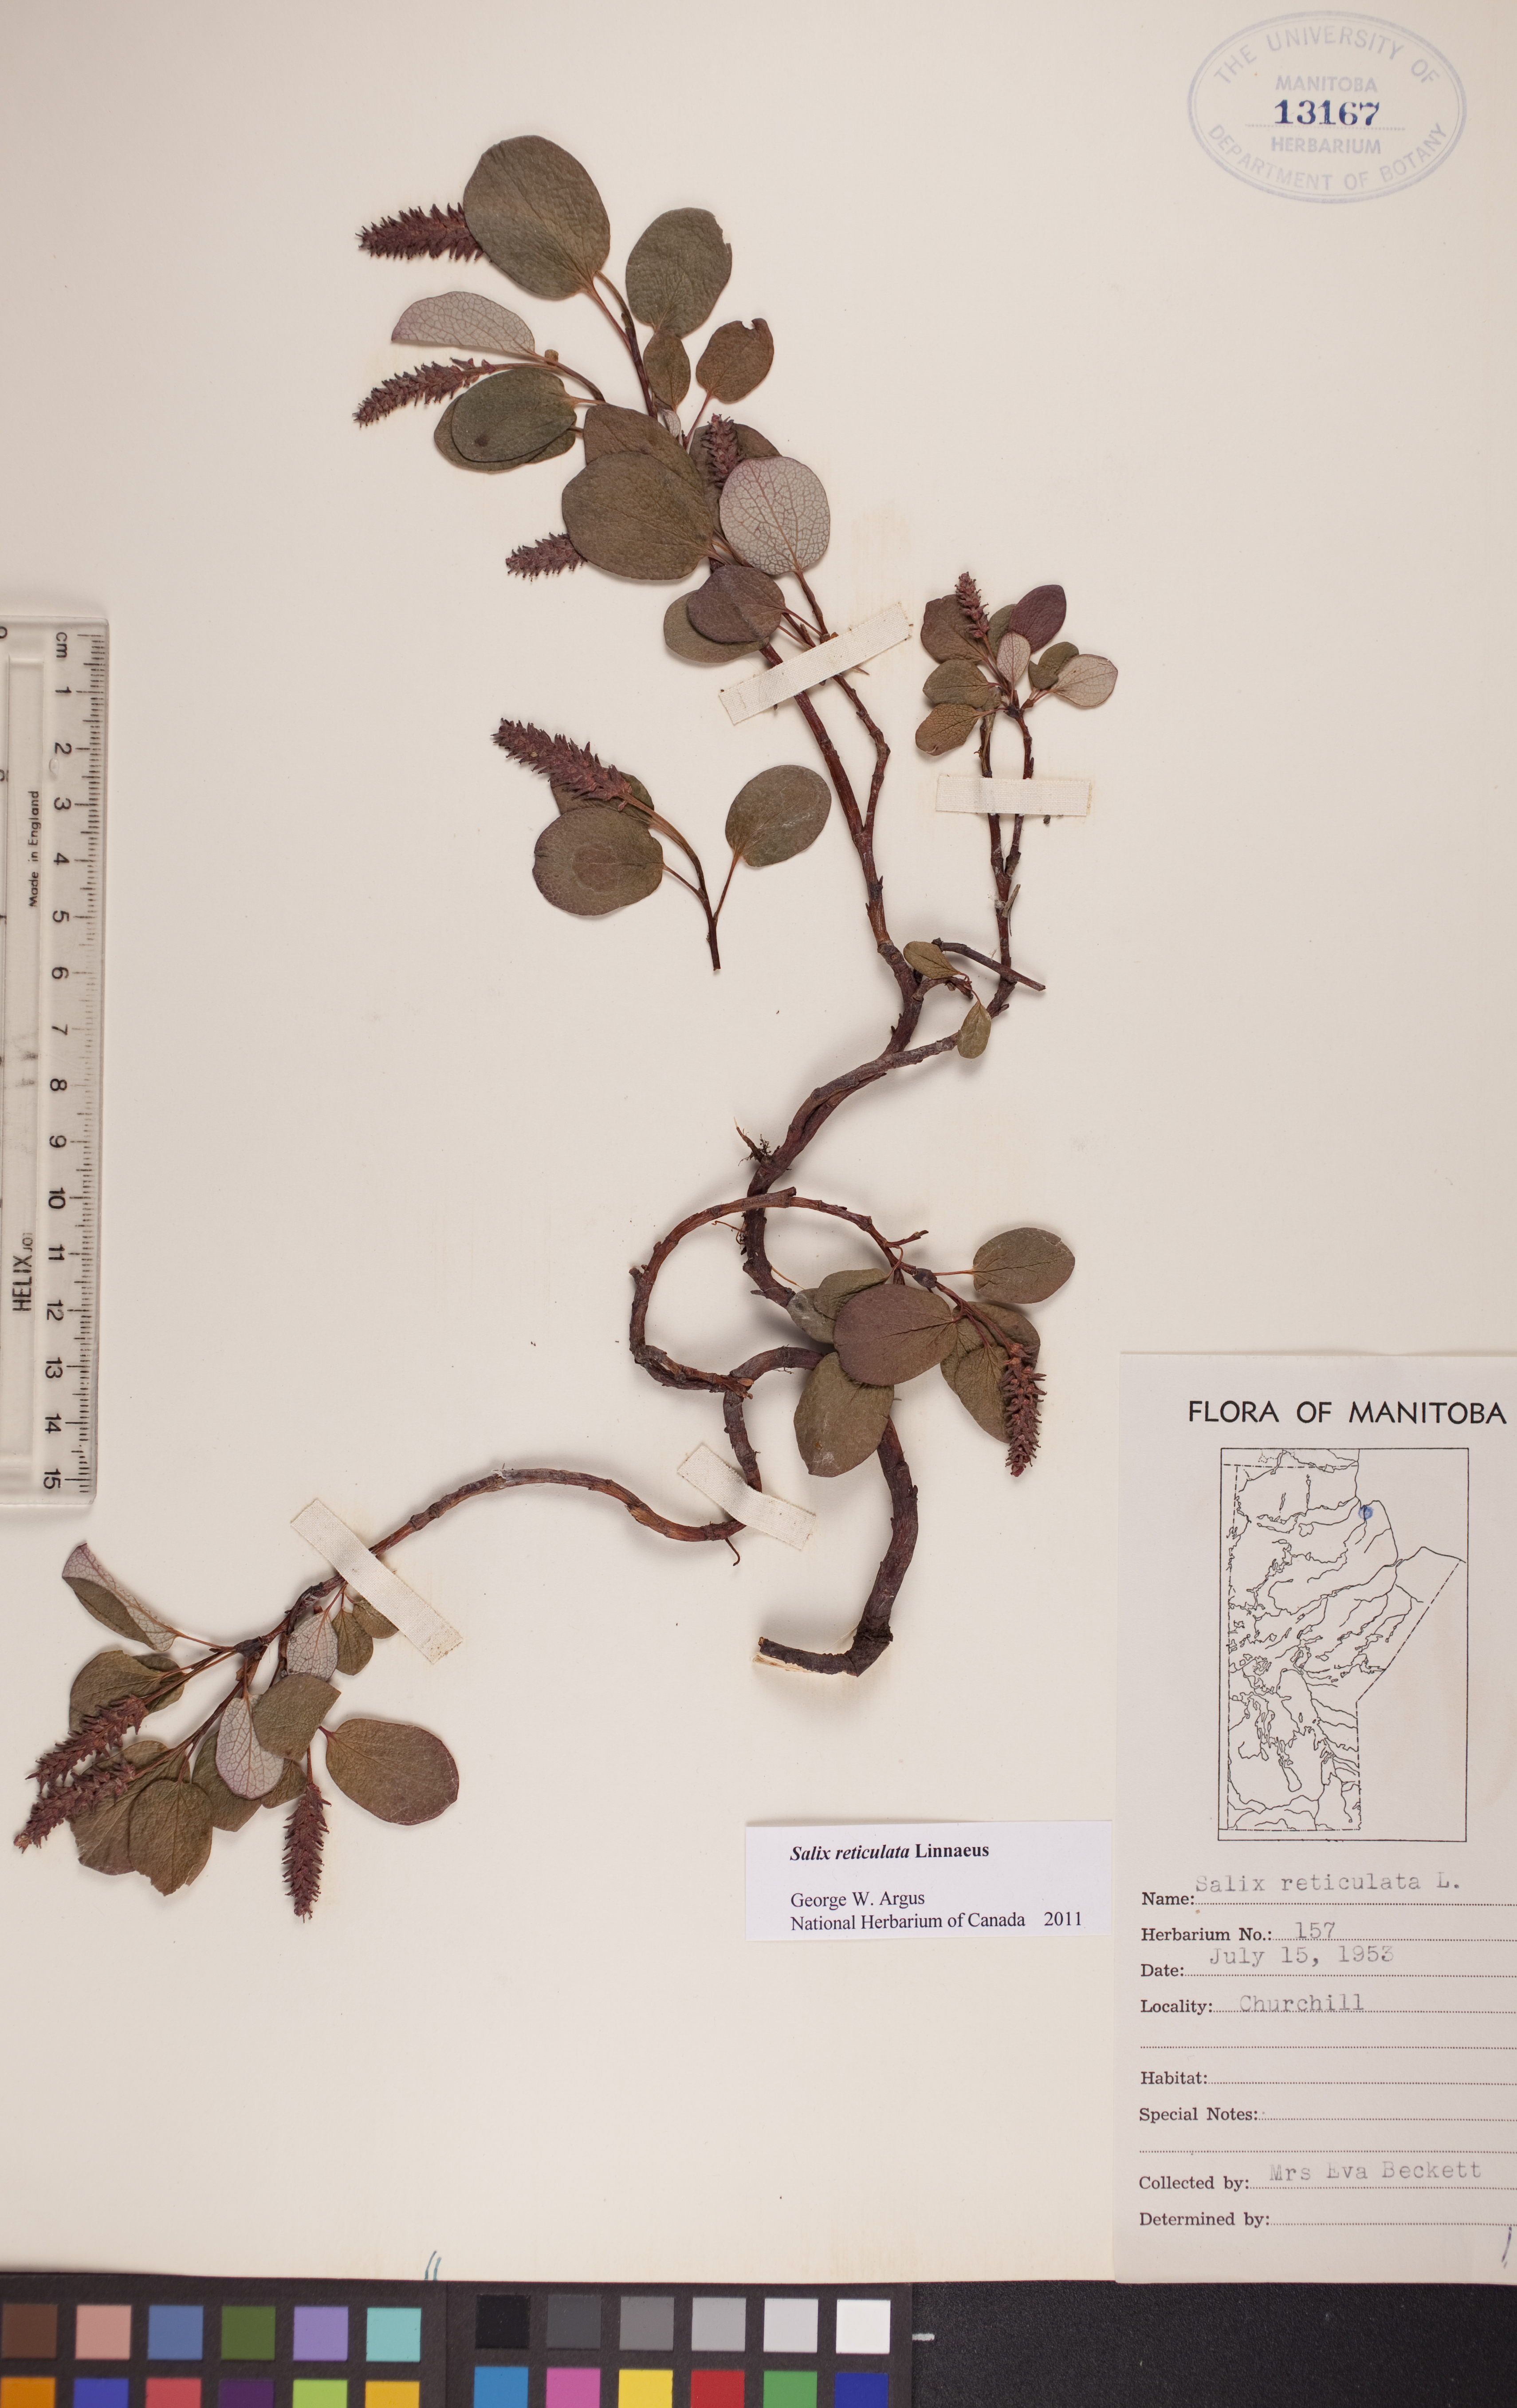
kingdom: Plantae
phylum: Tracheophyta
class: Magnoliopsida
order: Malpighiales
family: Salicaceae
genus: Salix
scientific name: Salix reticulata
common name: Net-leaved willow
